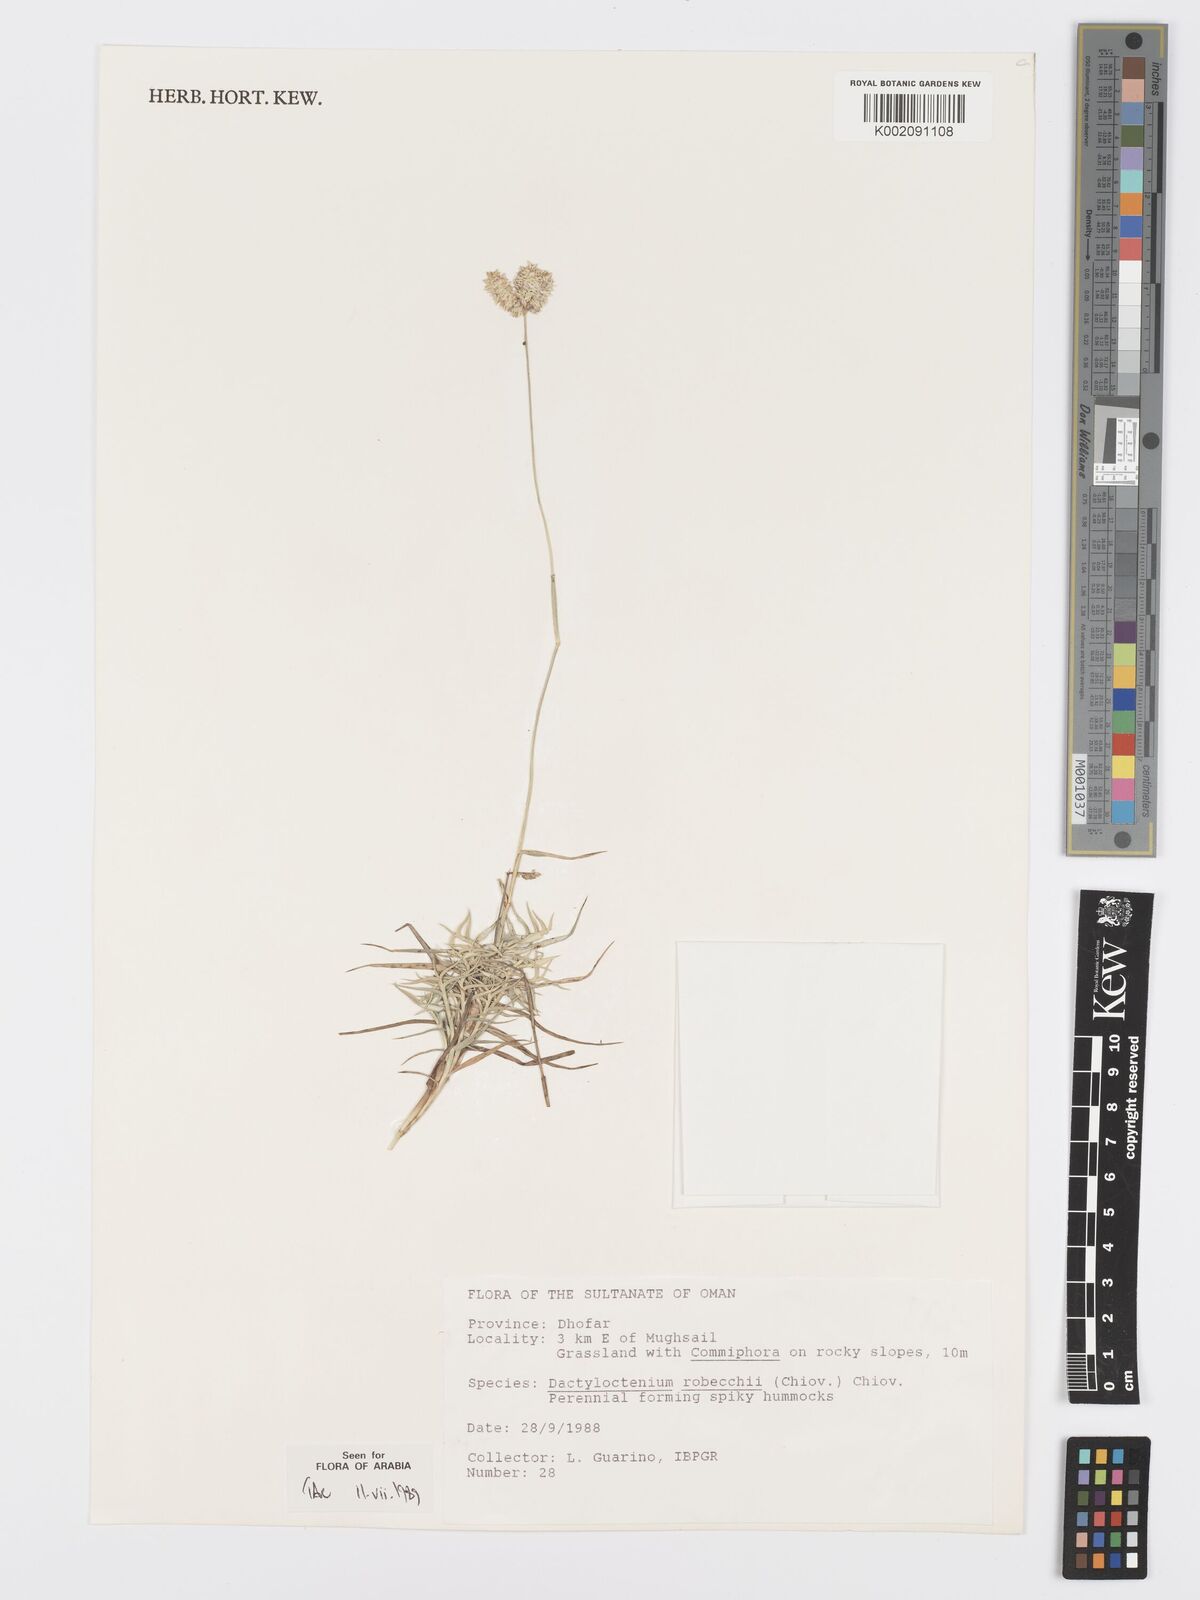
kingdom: Plantae
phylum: Tracheophyta
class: Liliopsida
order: Poales
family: Poaceae
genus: Dactyloctenium
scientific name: Dactyloctenium robecchii
